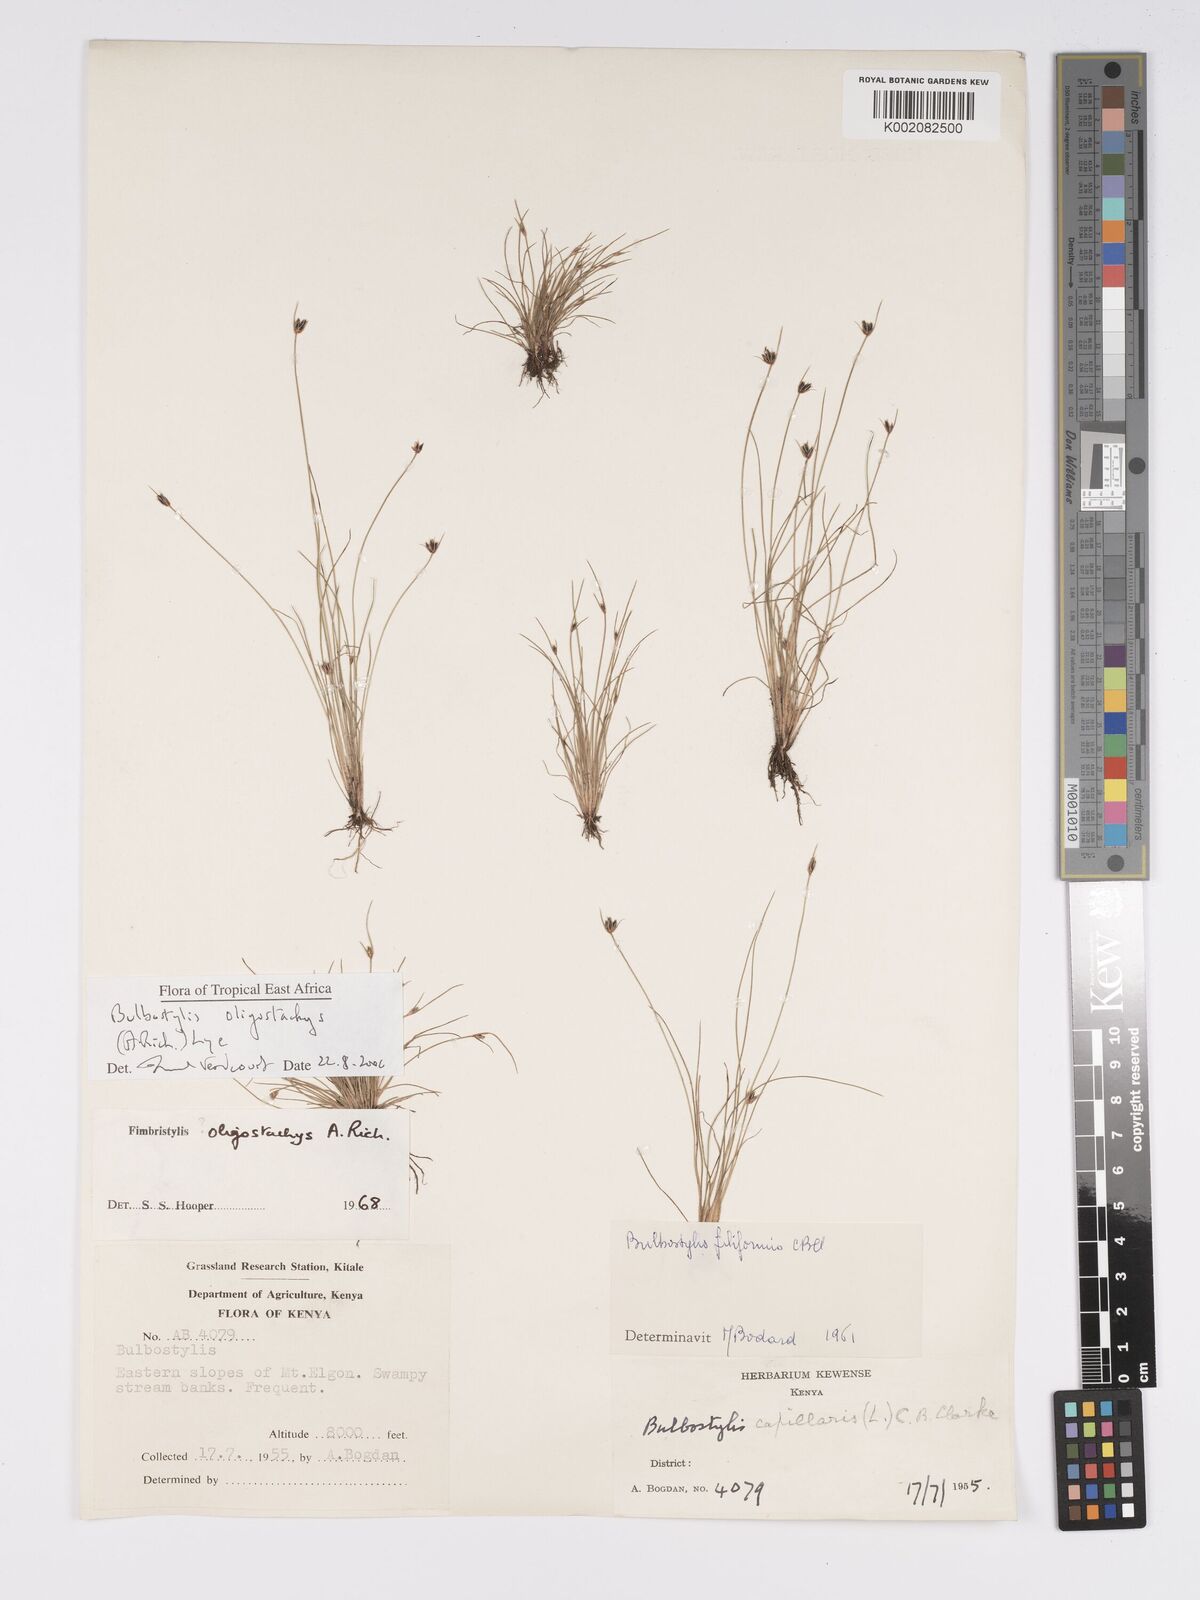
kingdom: Plantae
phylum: Tracheophyta
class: Liliopsida
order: Poales
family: Cyperaceae
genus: Bulbostylis
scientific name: Bulbostylis oligostachys
